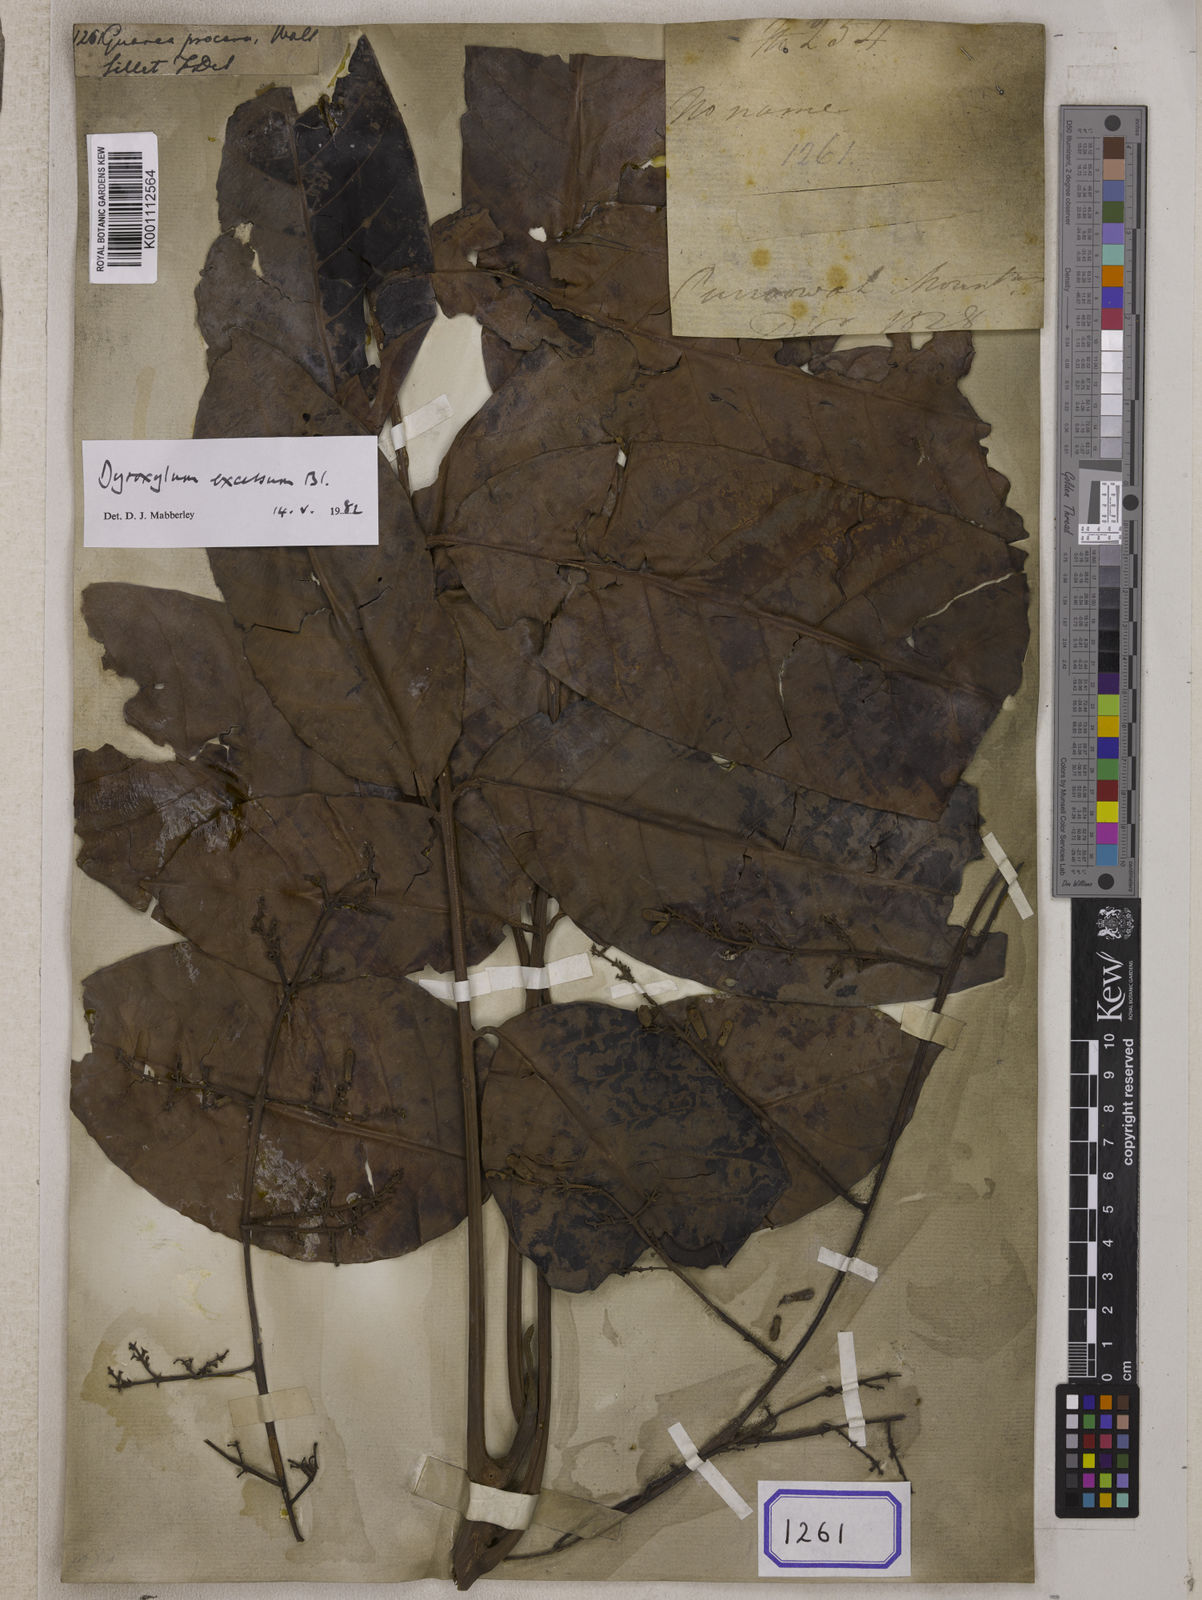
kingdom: Plantae
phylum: Tracheophyta
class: Magnoliopsida
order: Sapindales
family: Meliaceae
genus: Prasoxylon
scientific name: Prasoxylon excelsum
